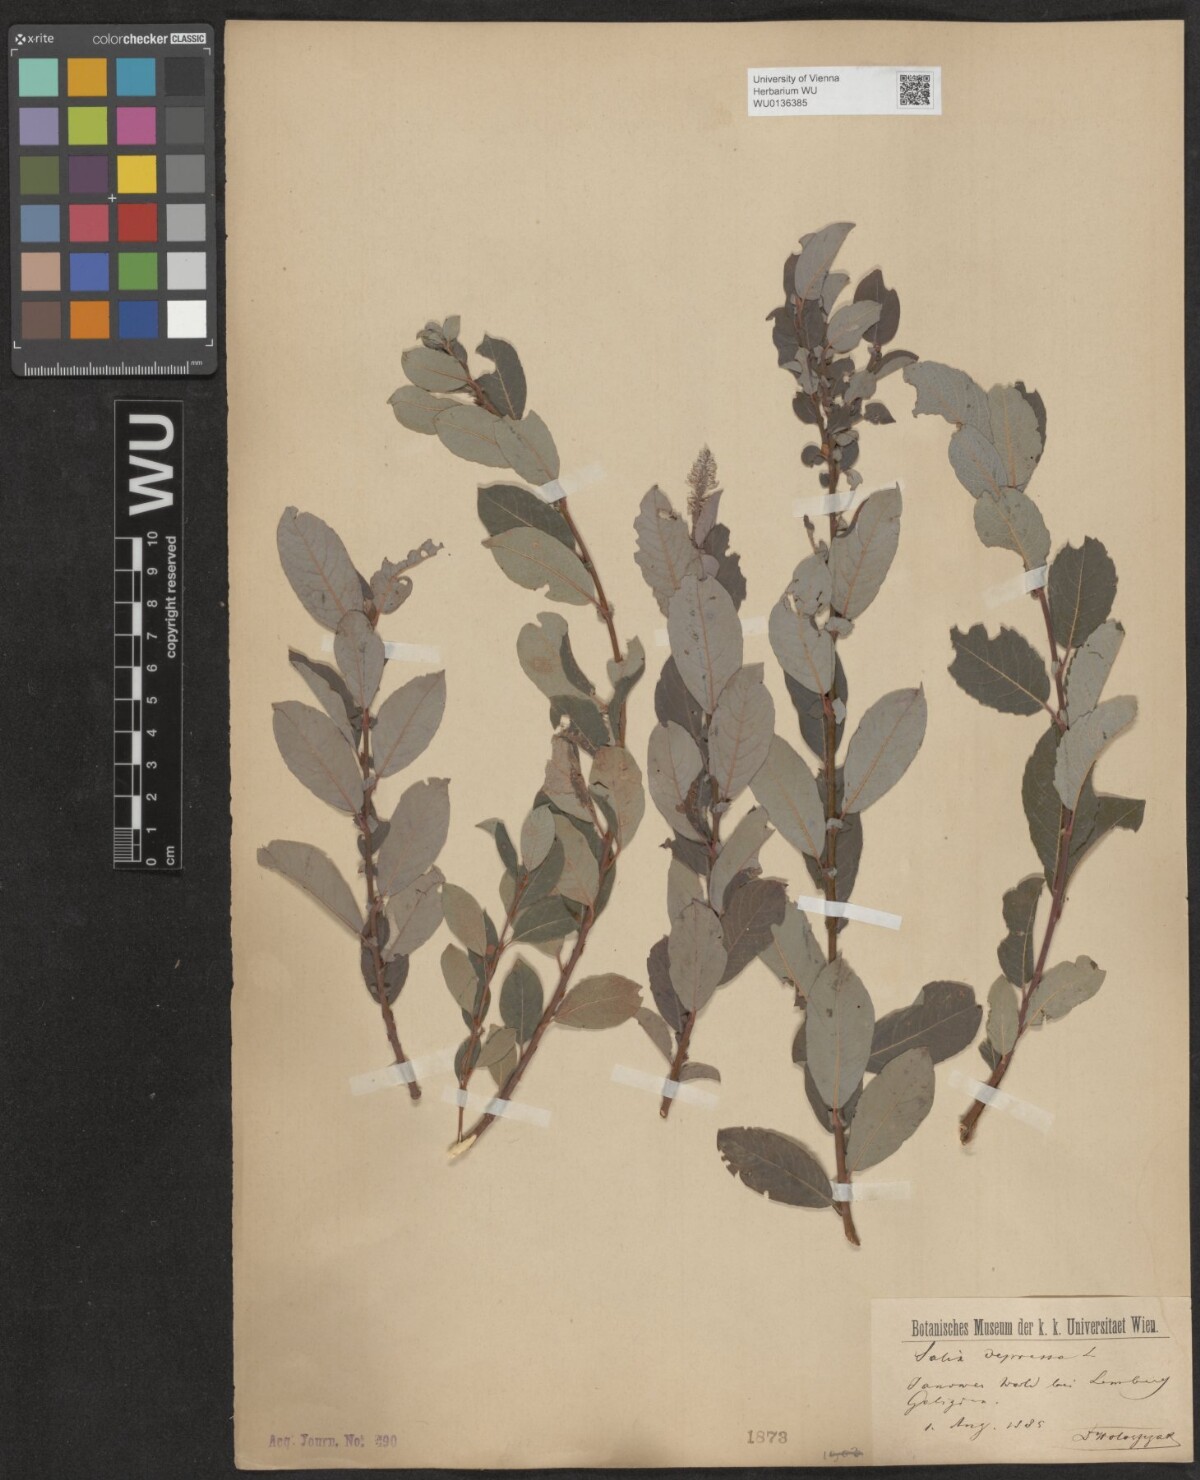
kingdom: Plantae
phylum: Tracheophyta
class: Magnoliopsida
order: Malpighiales
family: Salicaceae
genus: Salix
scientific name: Salix lanata
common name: Woolly willow
